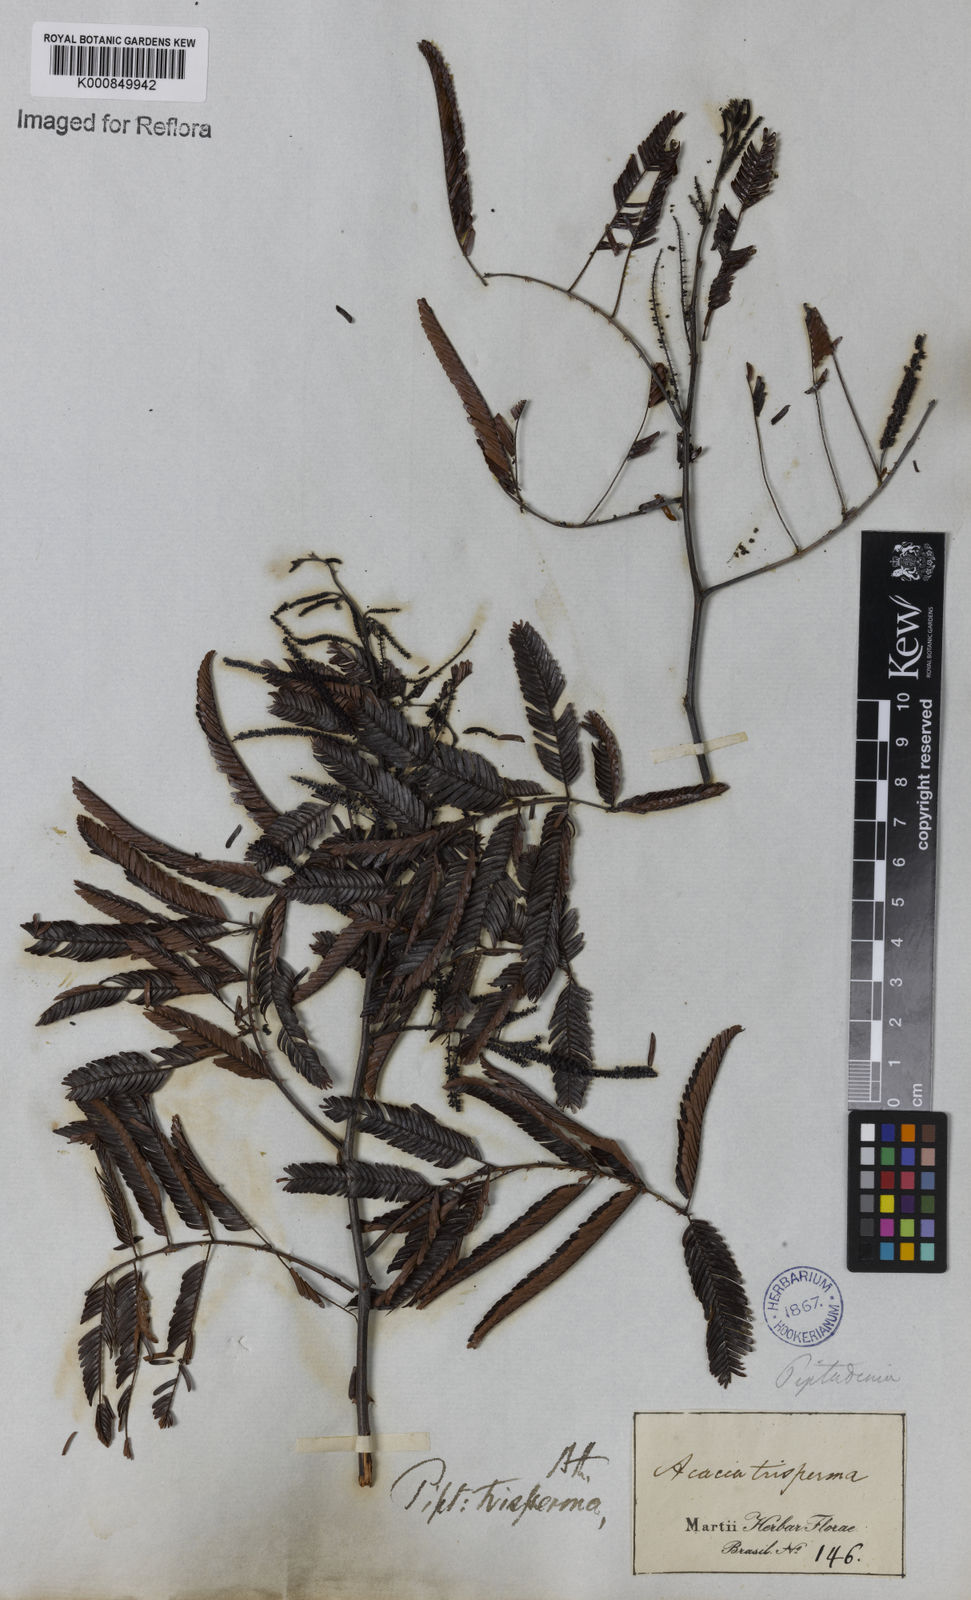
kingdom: Plantae
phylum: Tracheophyta
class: Magnoliopsida
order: Fabales
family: Fabaceae
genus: Piptadenia
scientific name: Piptadenia trisperma
